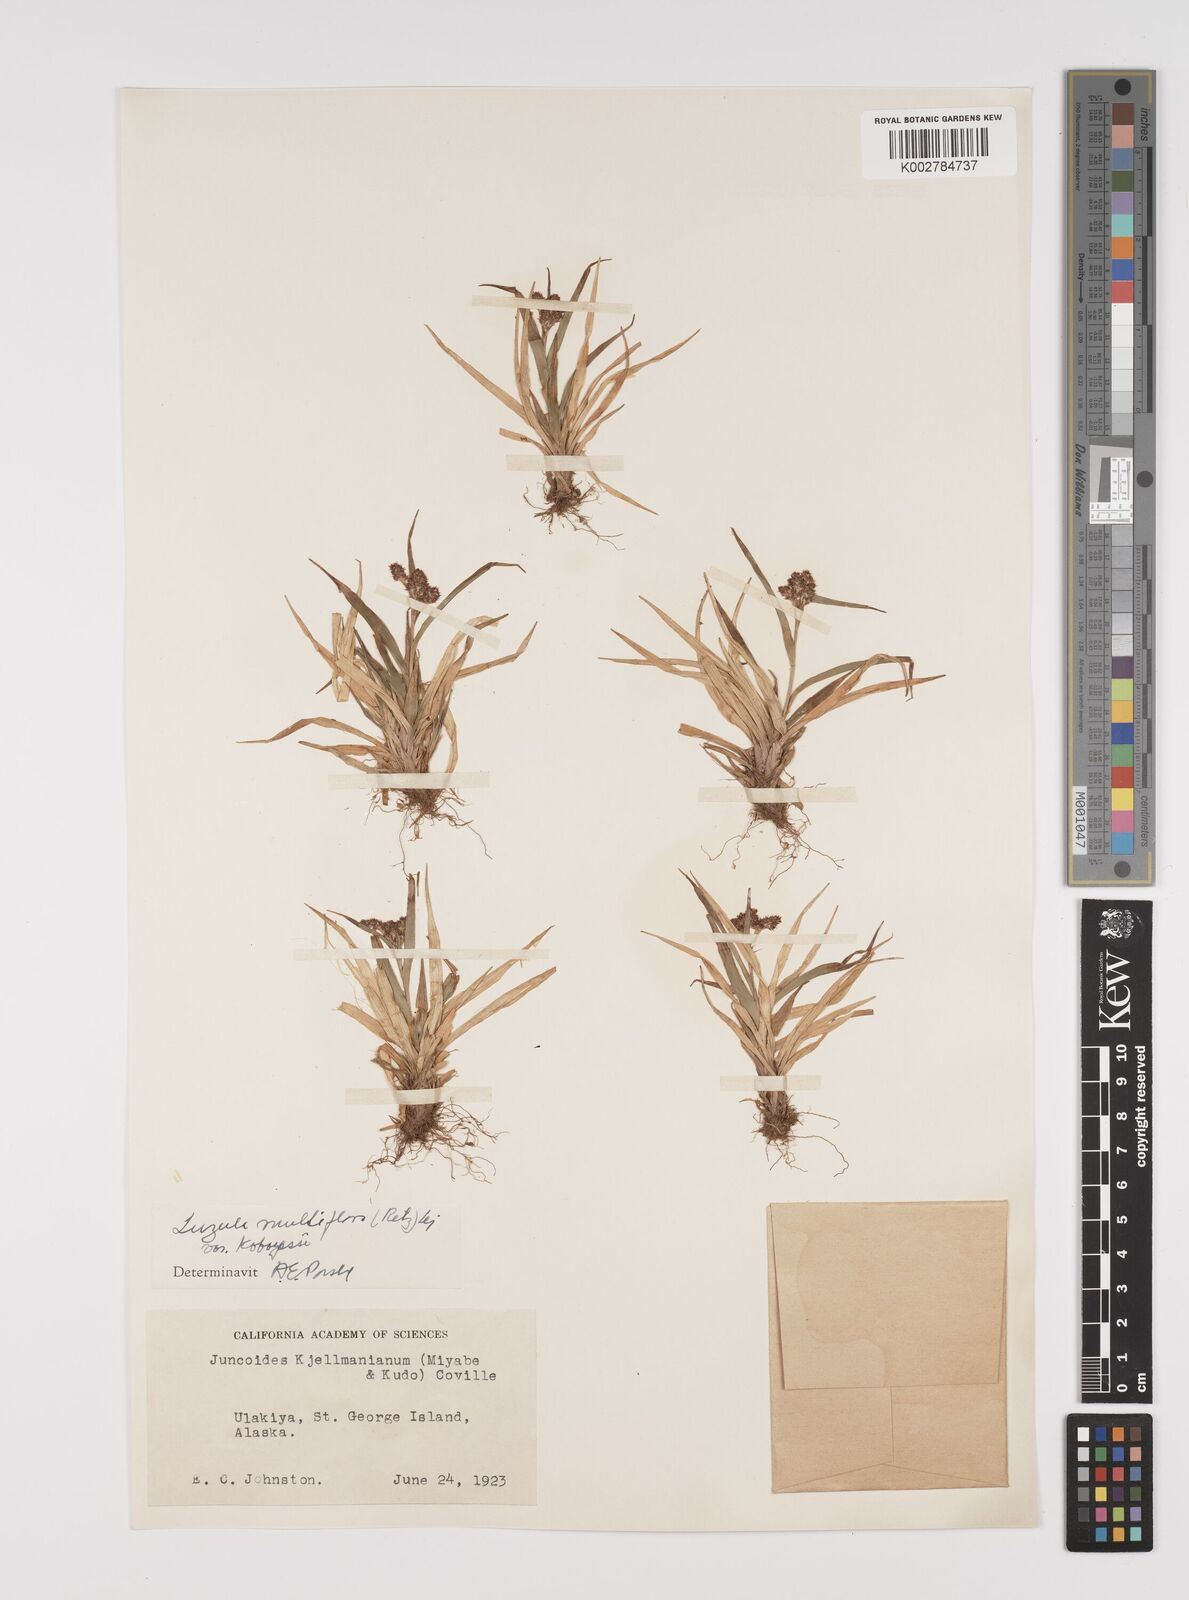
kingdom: Plantae
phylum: Tracheophyta
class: Liliopsida
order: Poales
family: Juncaceae
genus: Luzula
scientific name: Luzula campestris
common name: Field wood-rush
